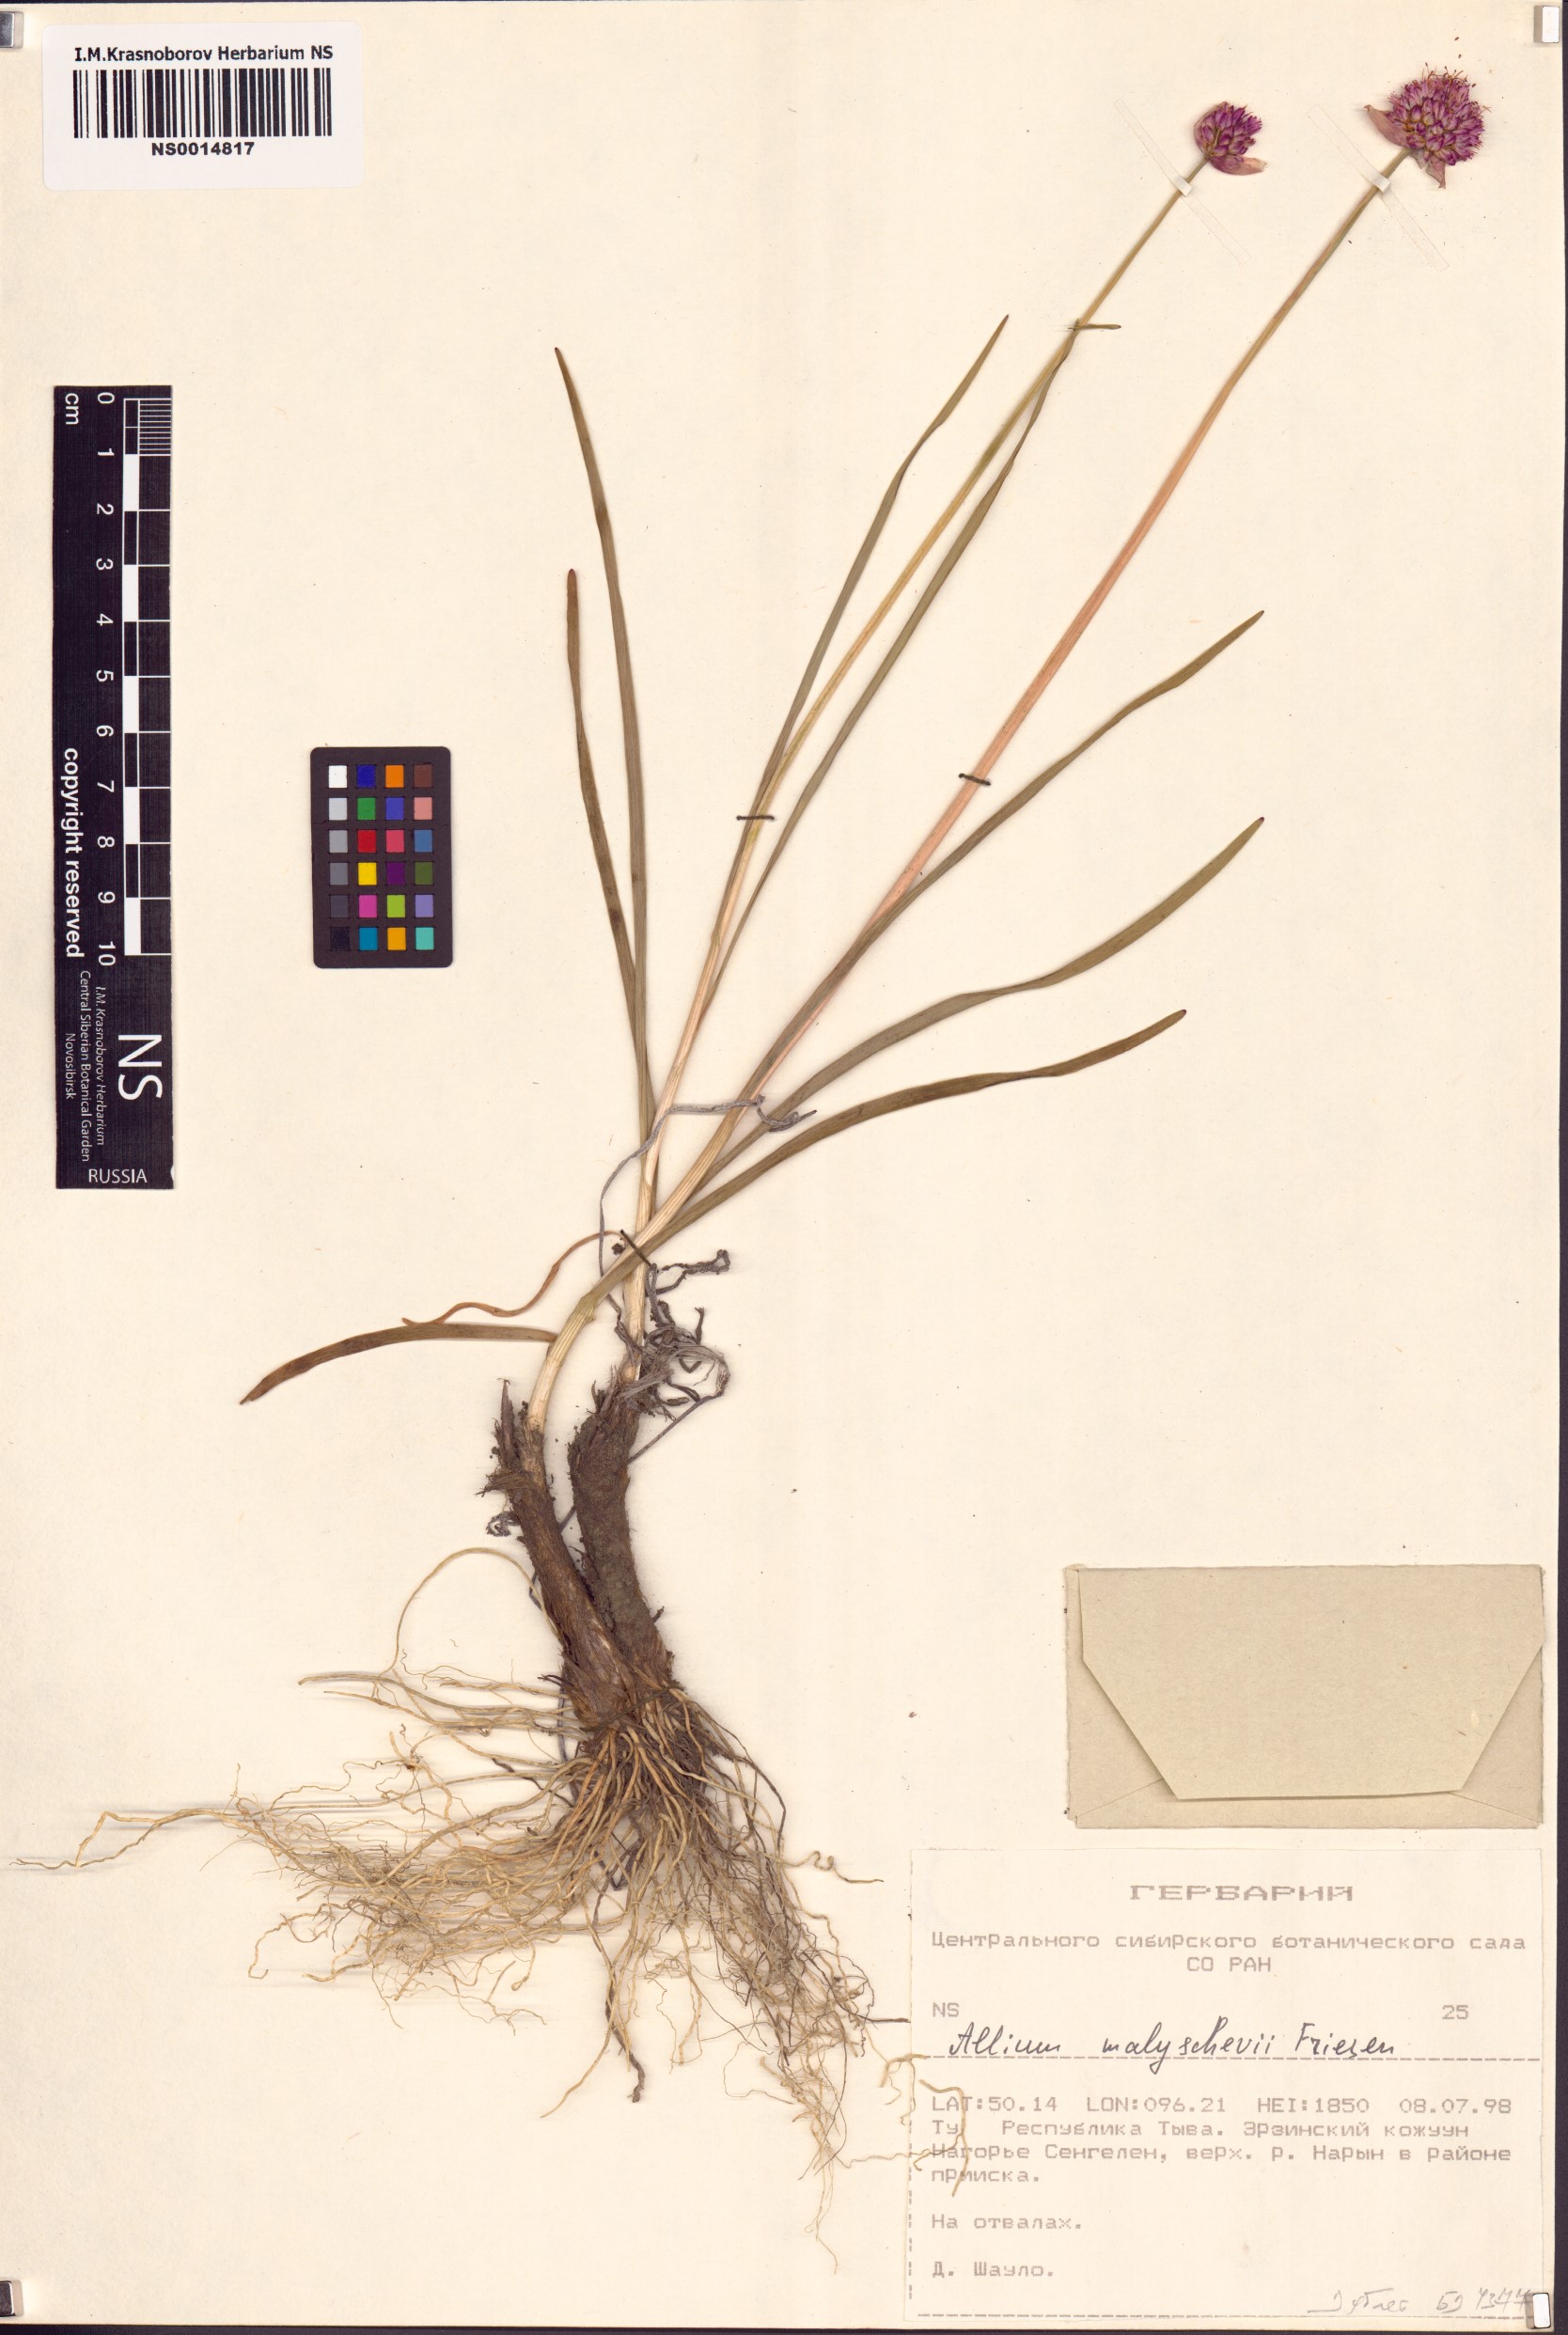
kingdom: Plantae
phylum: Tracheophyta
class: Liliopsida
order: Asparagales
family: Amaryllidaceae
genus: Allium
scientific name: Allium malyschevii
